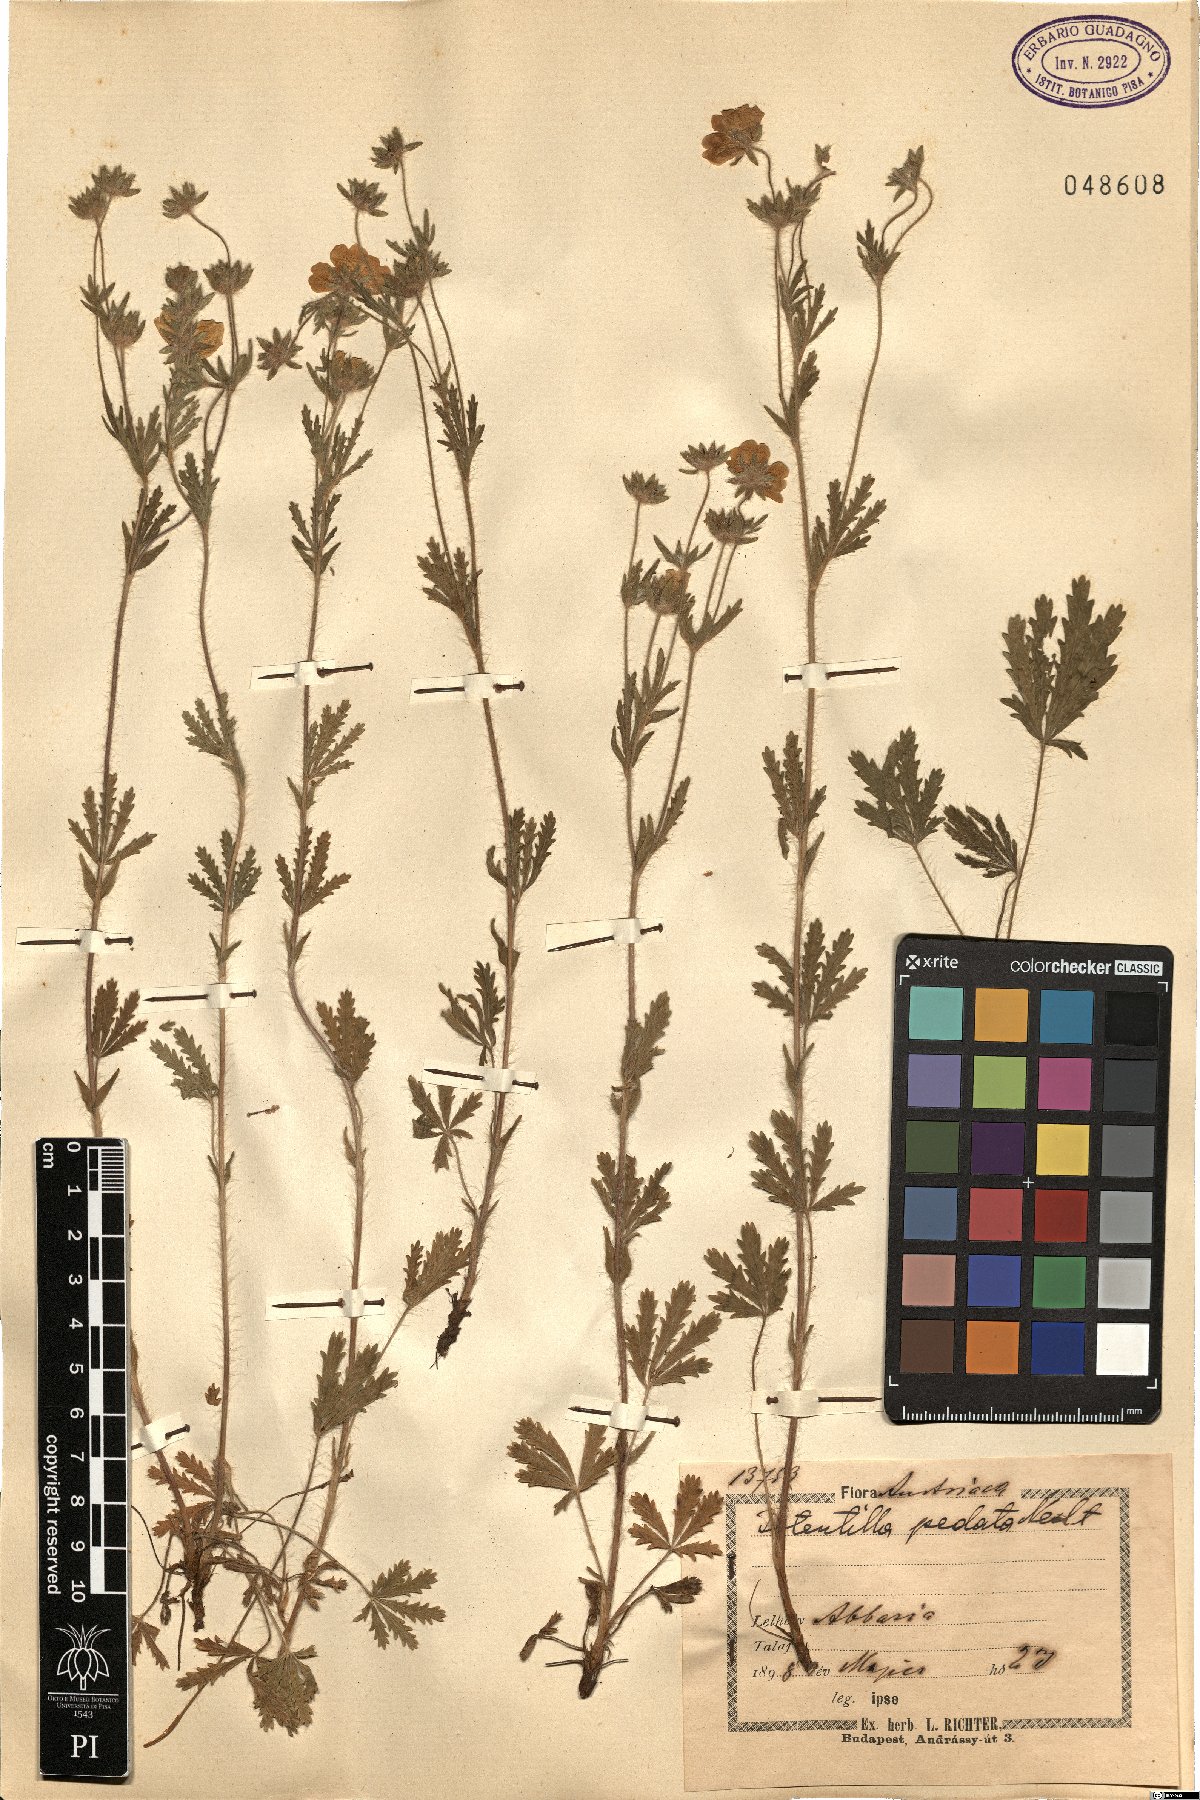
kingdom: Plantae
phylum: Tracheophyta
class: Magnoliopsida
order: Rosales
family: Rosaceae
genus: Potentilla
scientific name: Potentilla pedata
